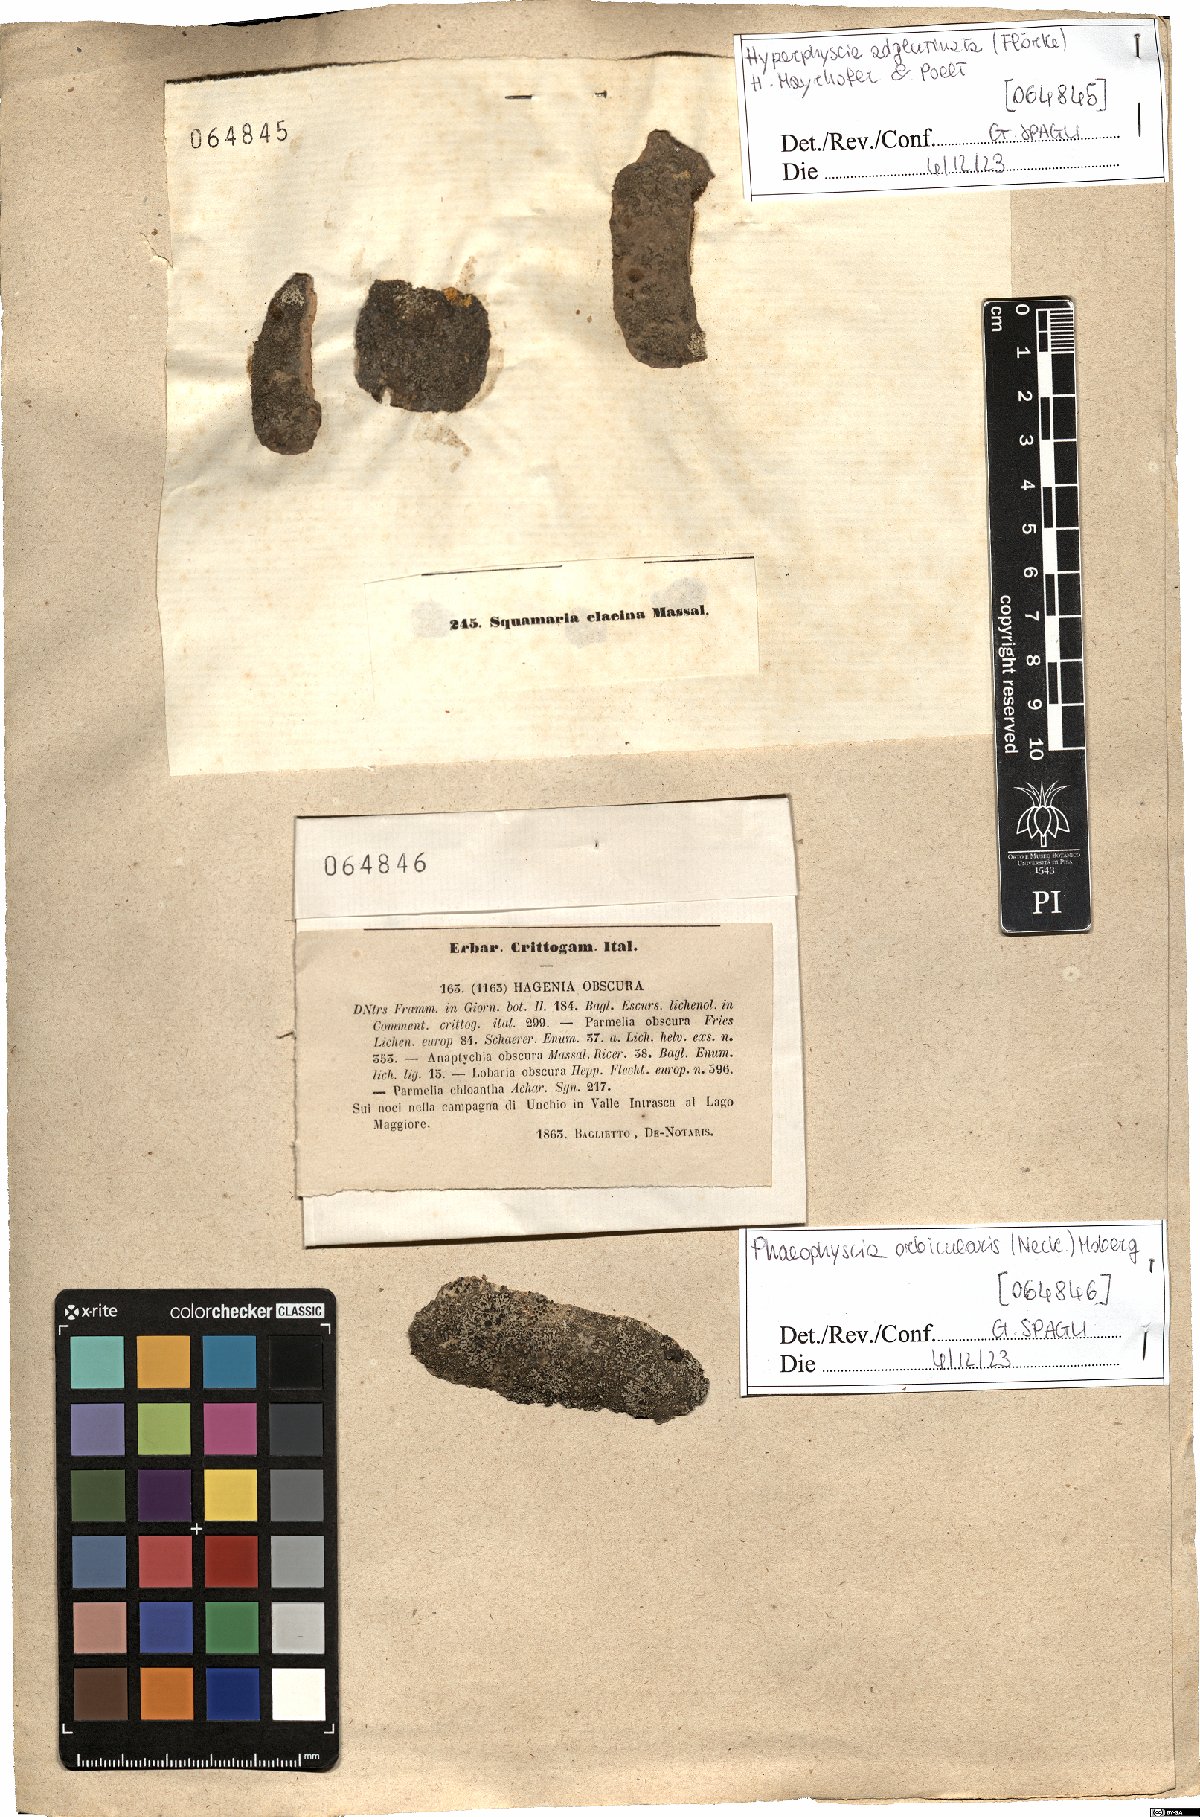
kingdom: Fungi
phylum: Ascomycota
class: Lecanoromycetes
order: Caliciales
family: Physciaceae
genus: Phaeophyscia
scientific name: Phaeophyscia orbicularis
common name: Mealy shadow lichen
